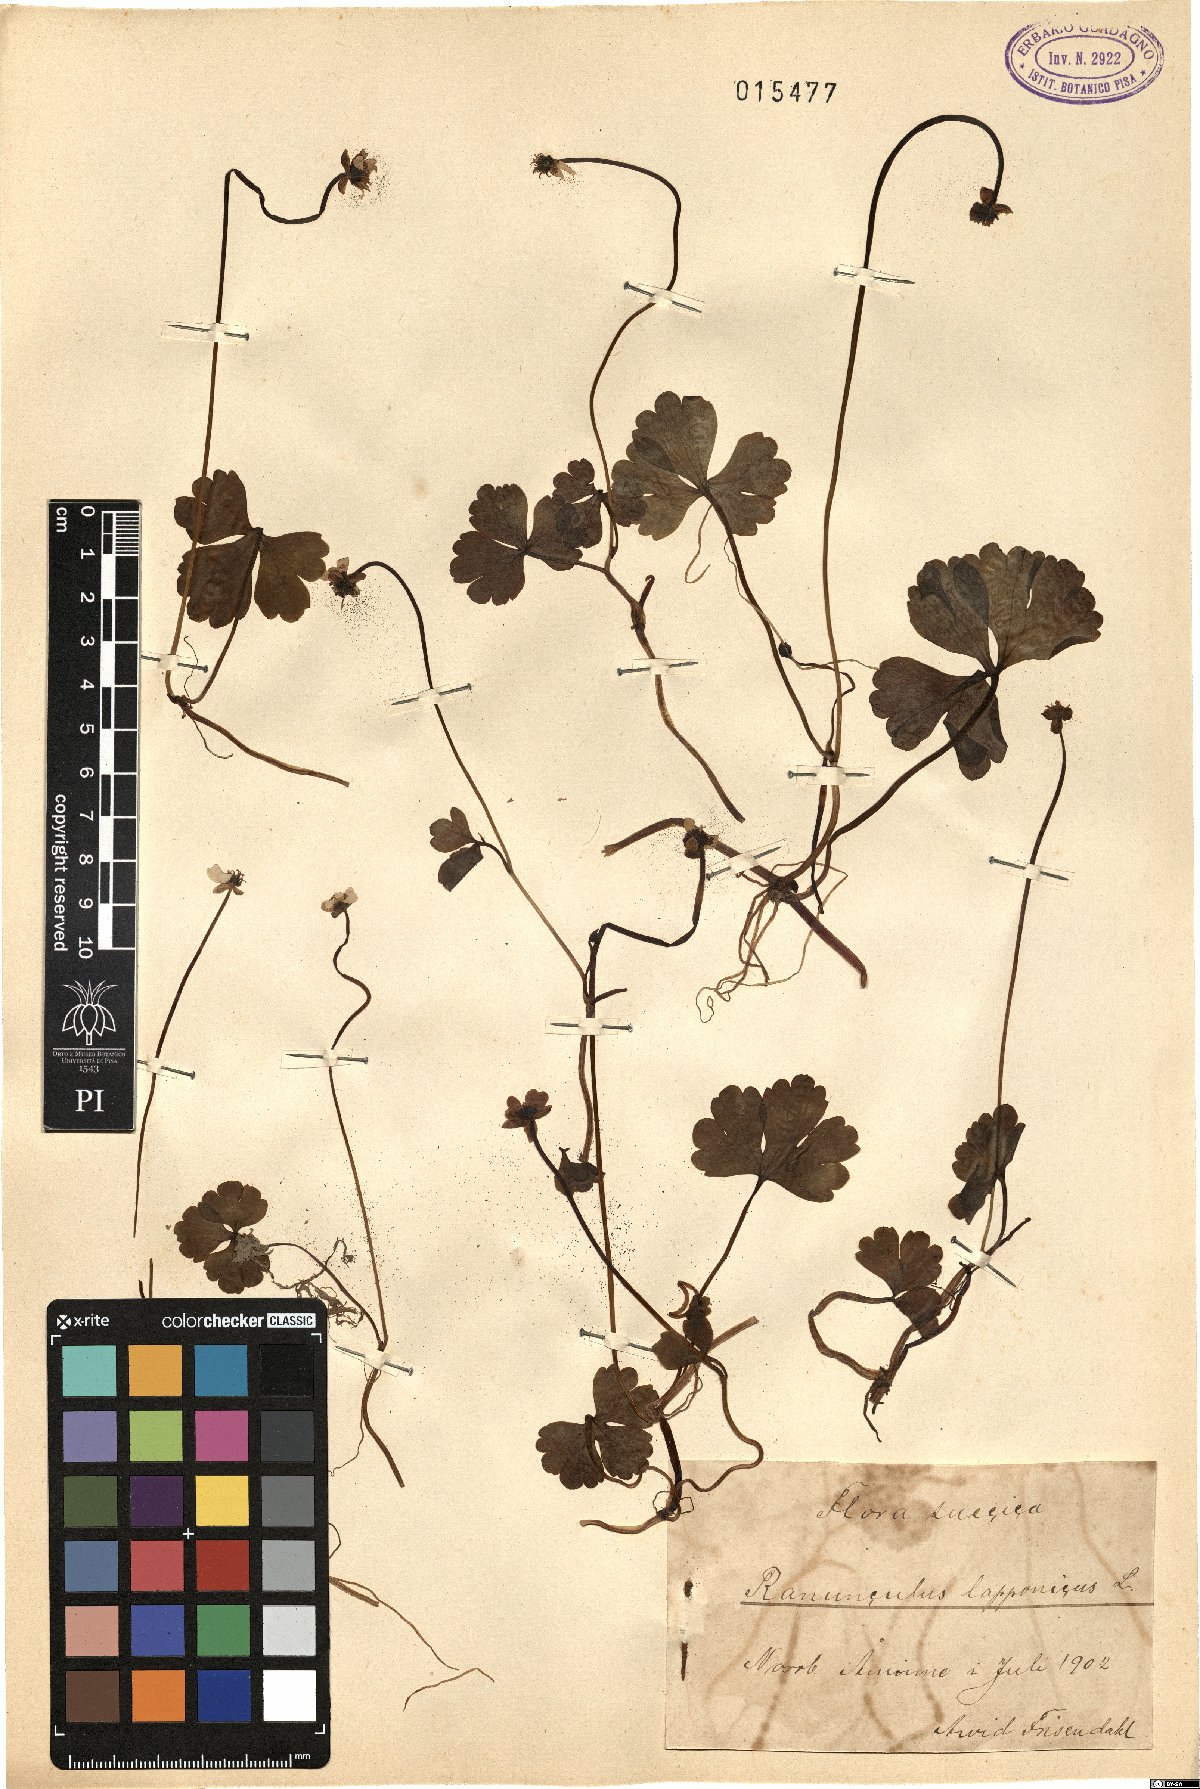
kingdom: Plantae
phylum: Tracheophyta
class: Magnoliopsida
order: Ranunculales
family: Ranunculaceae
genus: Coptidium
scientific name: Coptidium lapponicum
